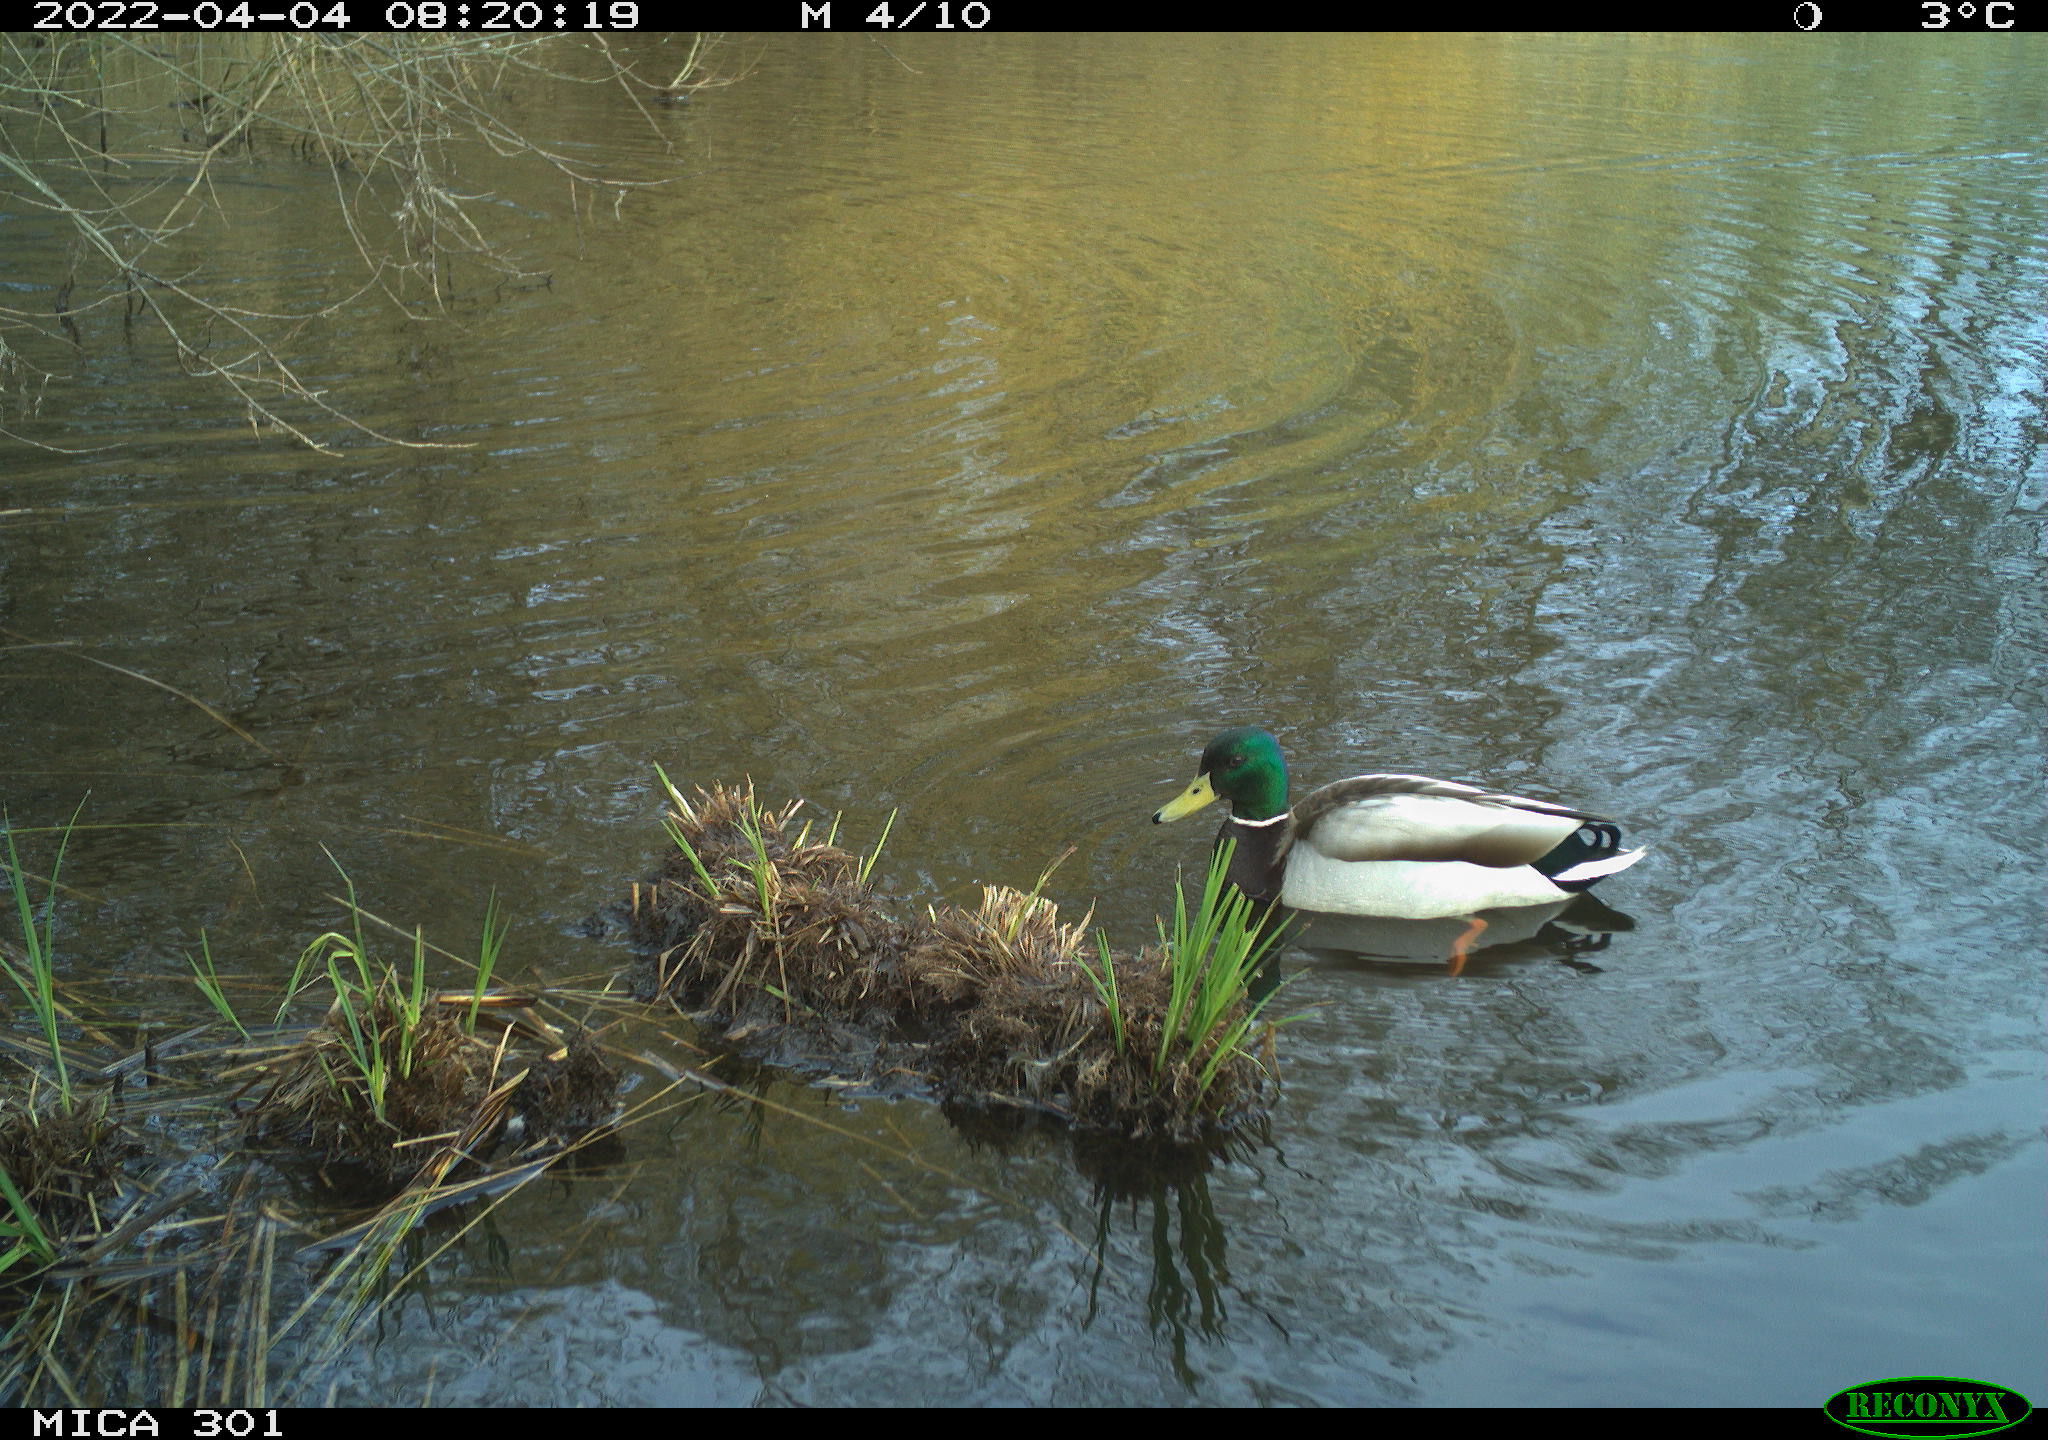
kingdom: Animalia
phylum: Chordata
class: Aves
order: Anseriformes
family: Anatidae
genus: Mareca
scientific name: Mareca strepera
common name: Gadwall
